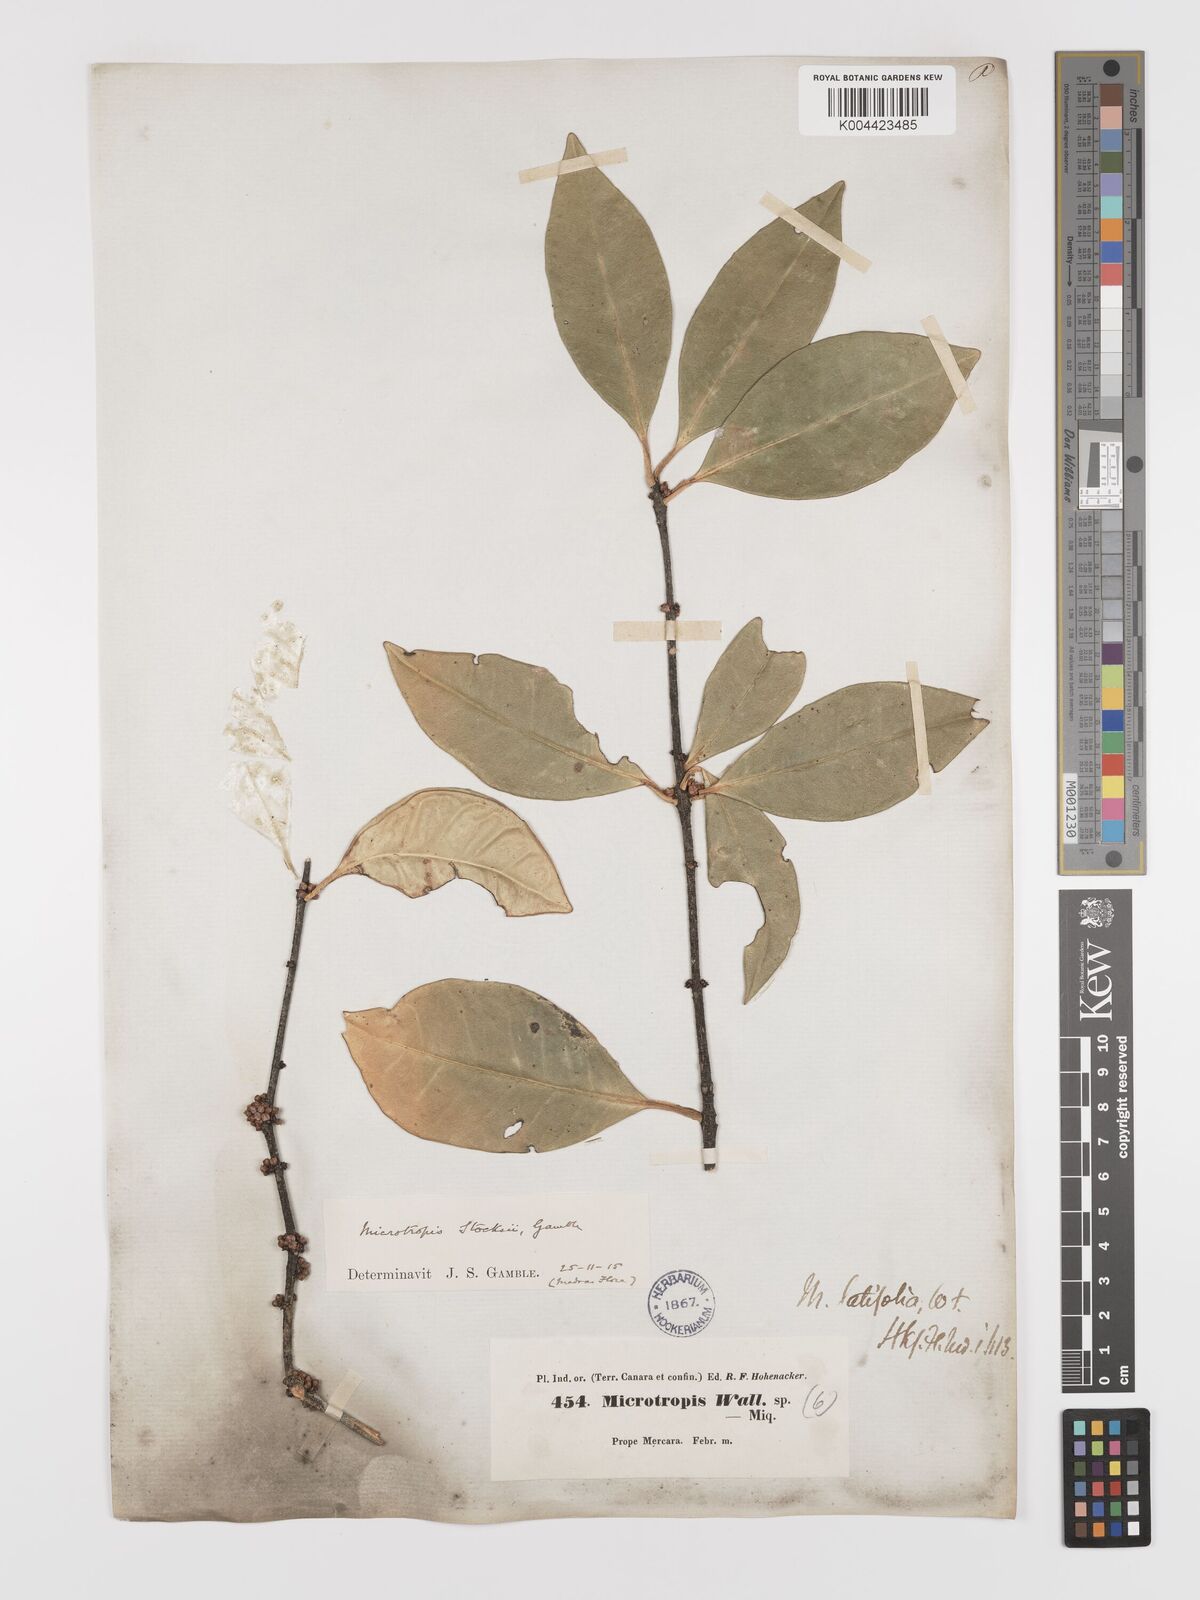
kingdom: Plantae
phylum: Tracheophyta
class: Magnoliopsida
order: Celastrales
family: Celastraceae
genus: Microtropis
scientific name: Microtropis stocksii
